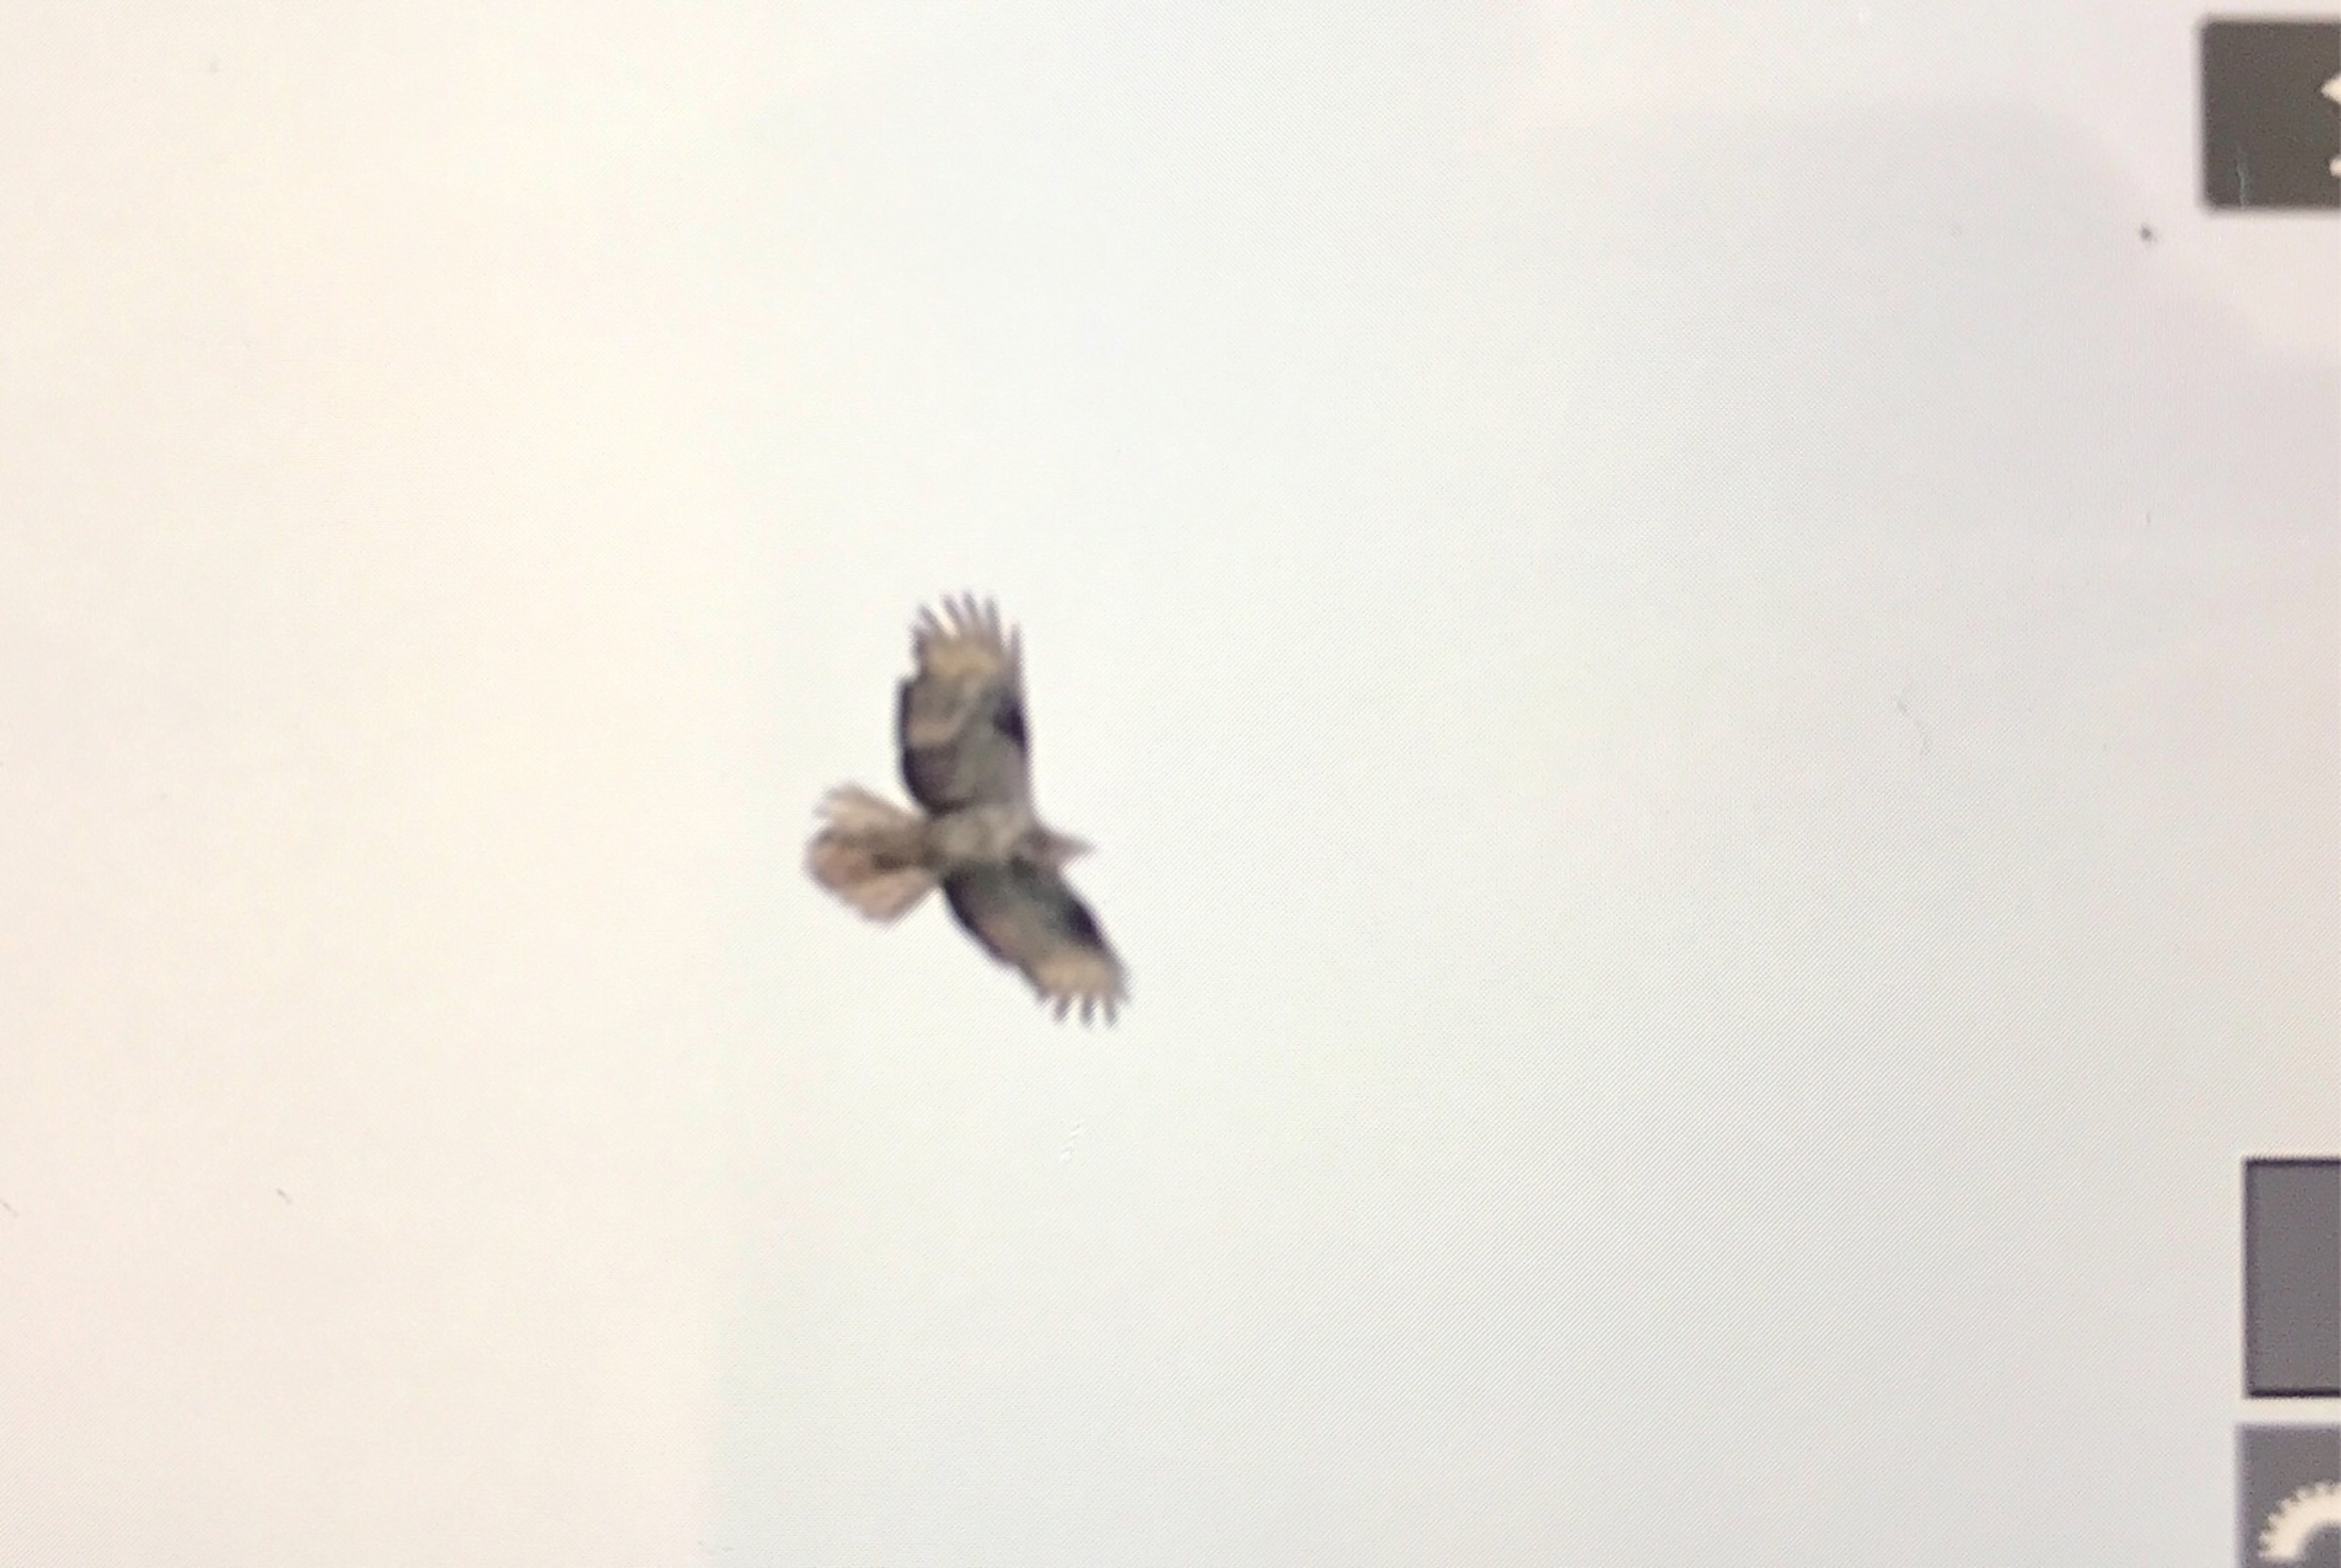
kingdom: Animalia
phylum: Chordata
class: Aves
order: Accipitriformes
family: Accipitridae
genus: Pernis
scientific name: Pernis apivorus
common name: Hvepsevåge
